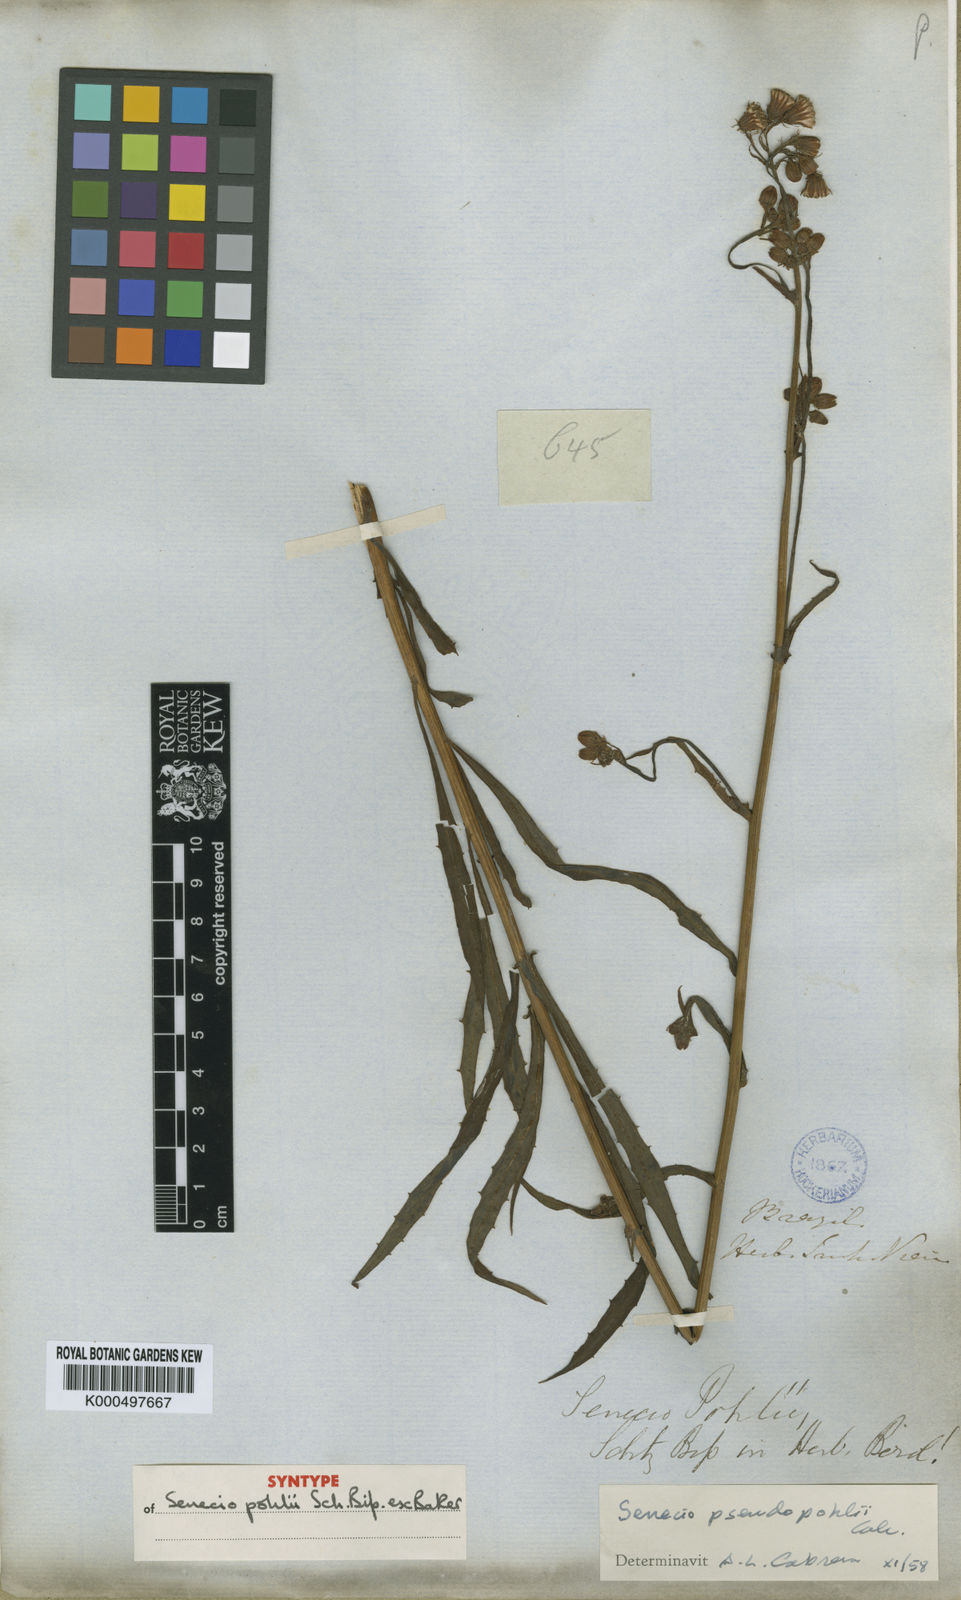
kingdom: Plantae
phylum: Tracheophyta
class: Magnoliopsida
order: Asterales
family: Asteraceae
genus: Senecio
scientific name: Senecio
